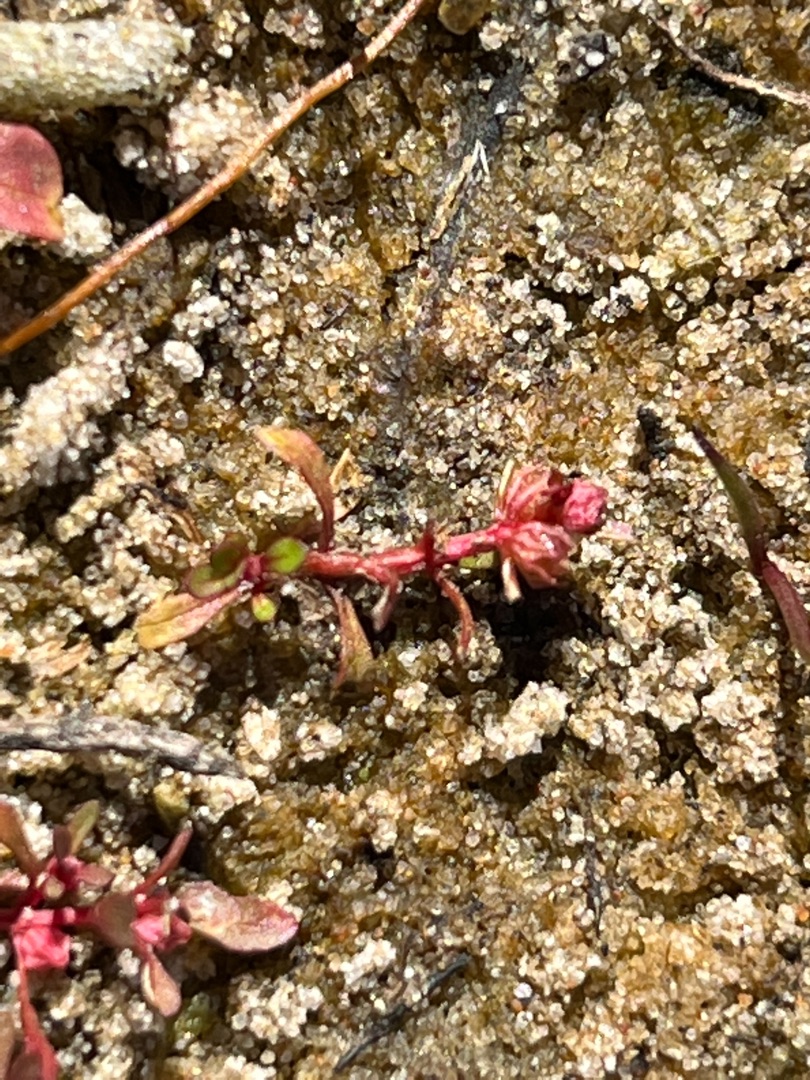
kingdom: Plantae
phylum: Tracheophyta
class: Magnoliopsida
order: Myrtales
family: Lythraceae
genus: Lythrum
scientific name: Lythrum portula
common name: Vandportulak
